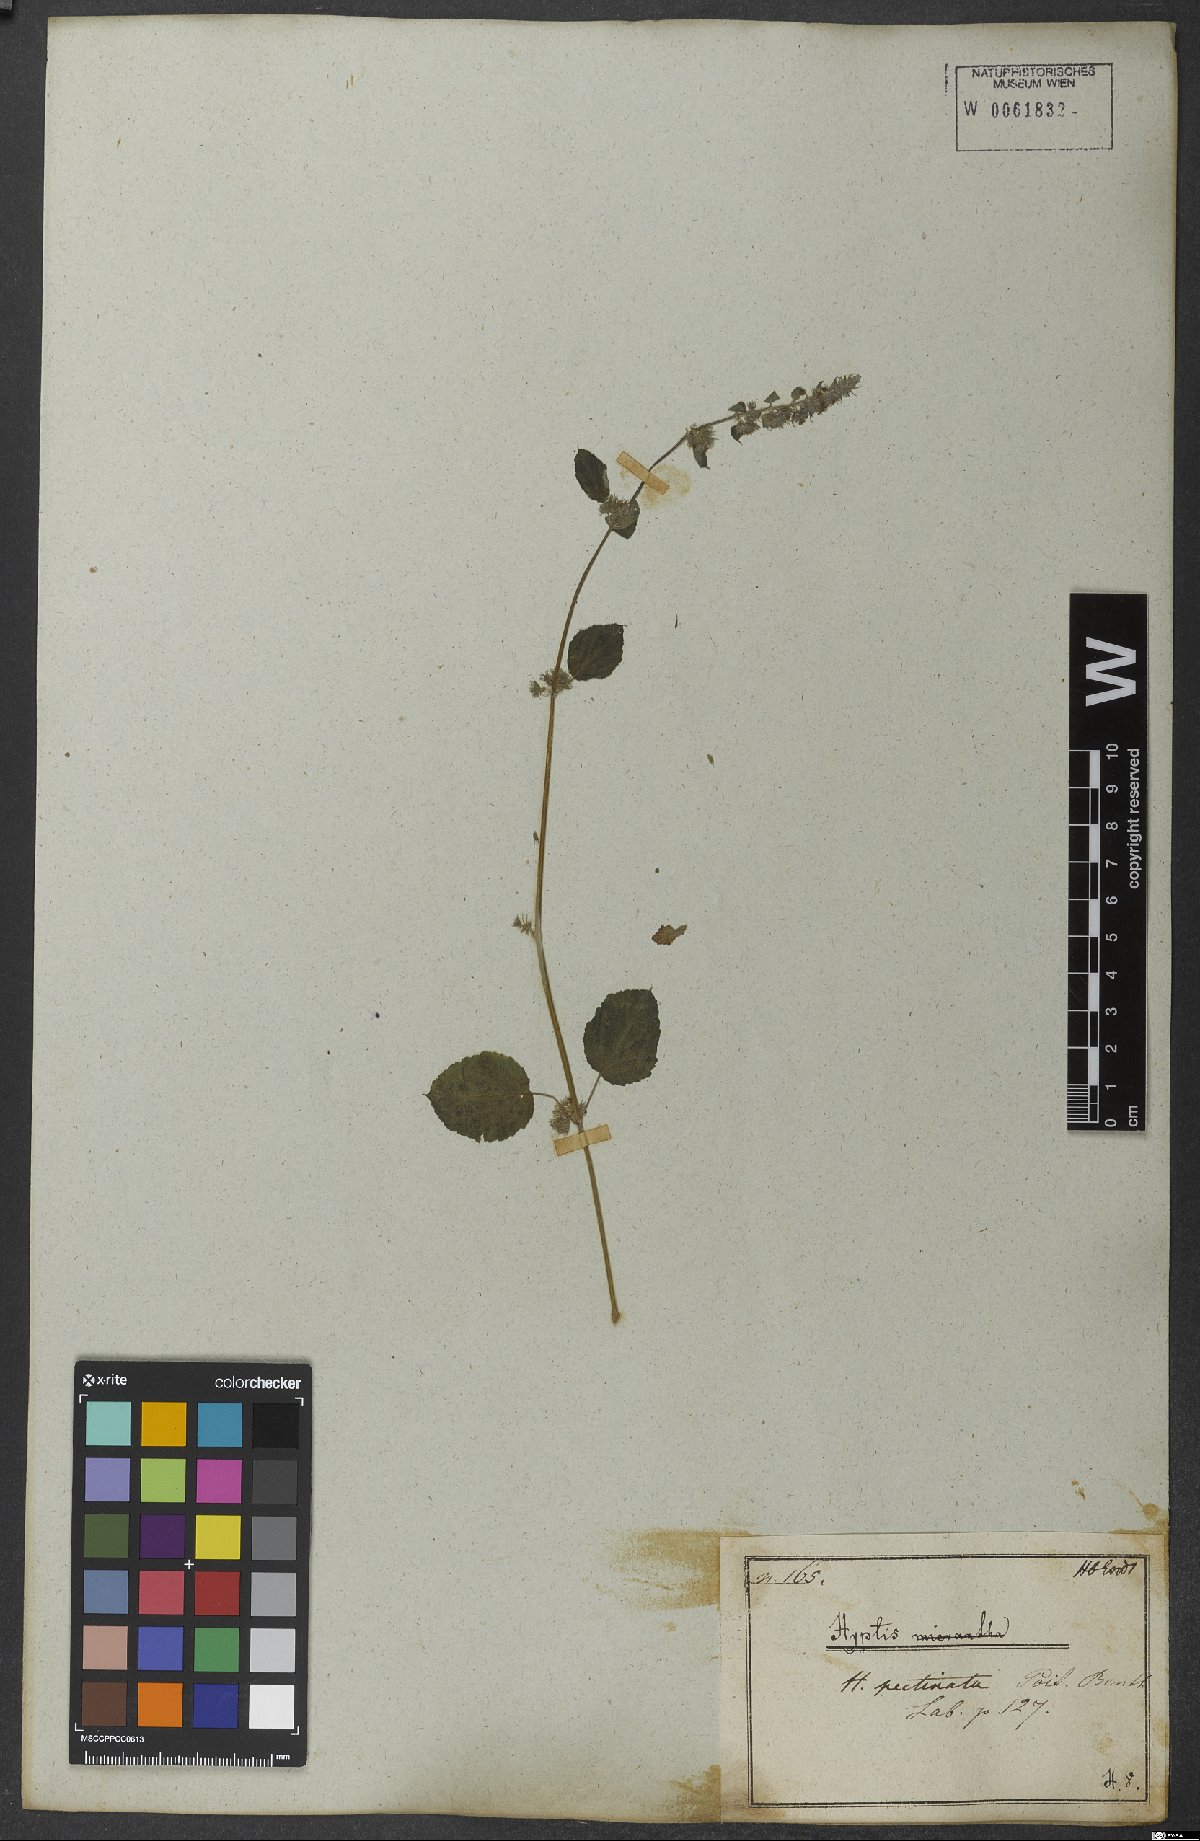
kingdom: Plantae
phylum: Tracheophyta
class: Magnoliopsida
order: Lamiales
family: Lamiaceae
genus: Mesosphaerum
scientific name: Mesosphaerum pectinatum
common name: Comb hyptis
